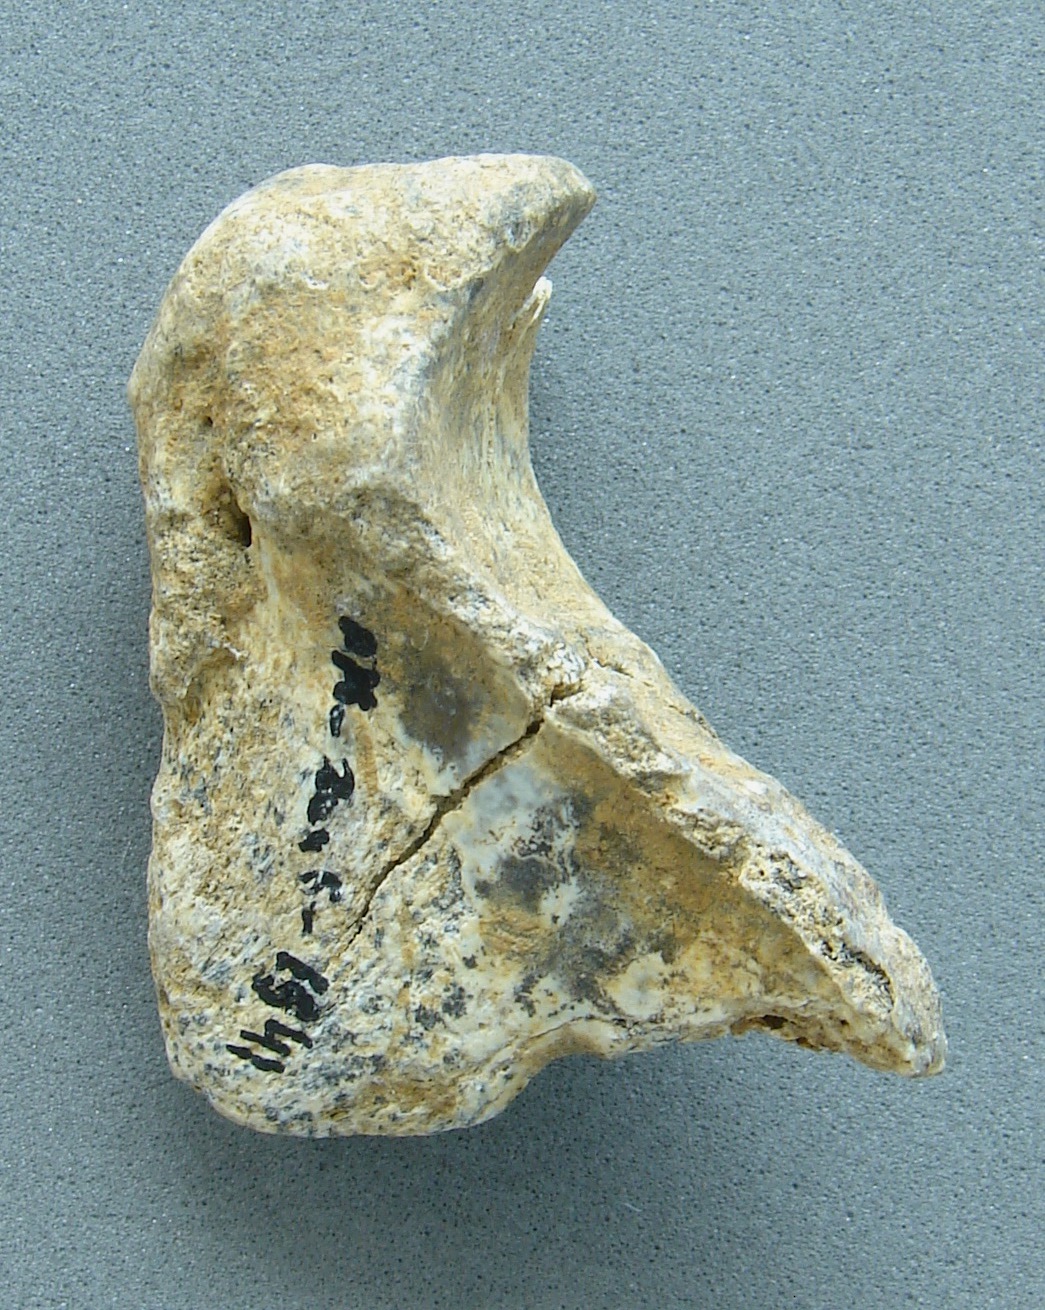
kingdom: Animalia
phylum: Chordata
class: Mammalia
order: Carnivora
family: Felidae
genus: Panthera
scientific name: Panthera spelaea
